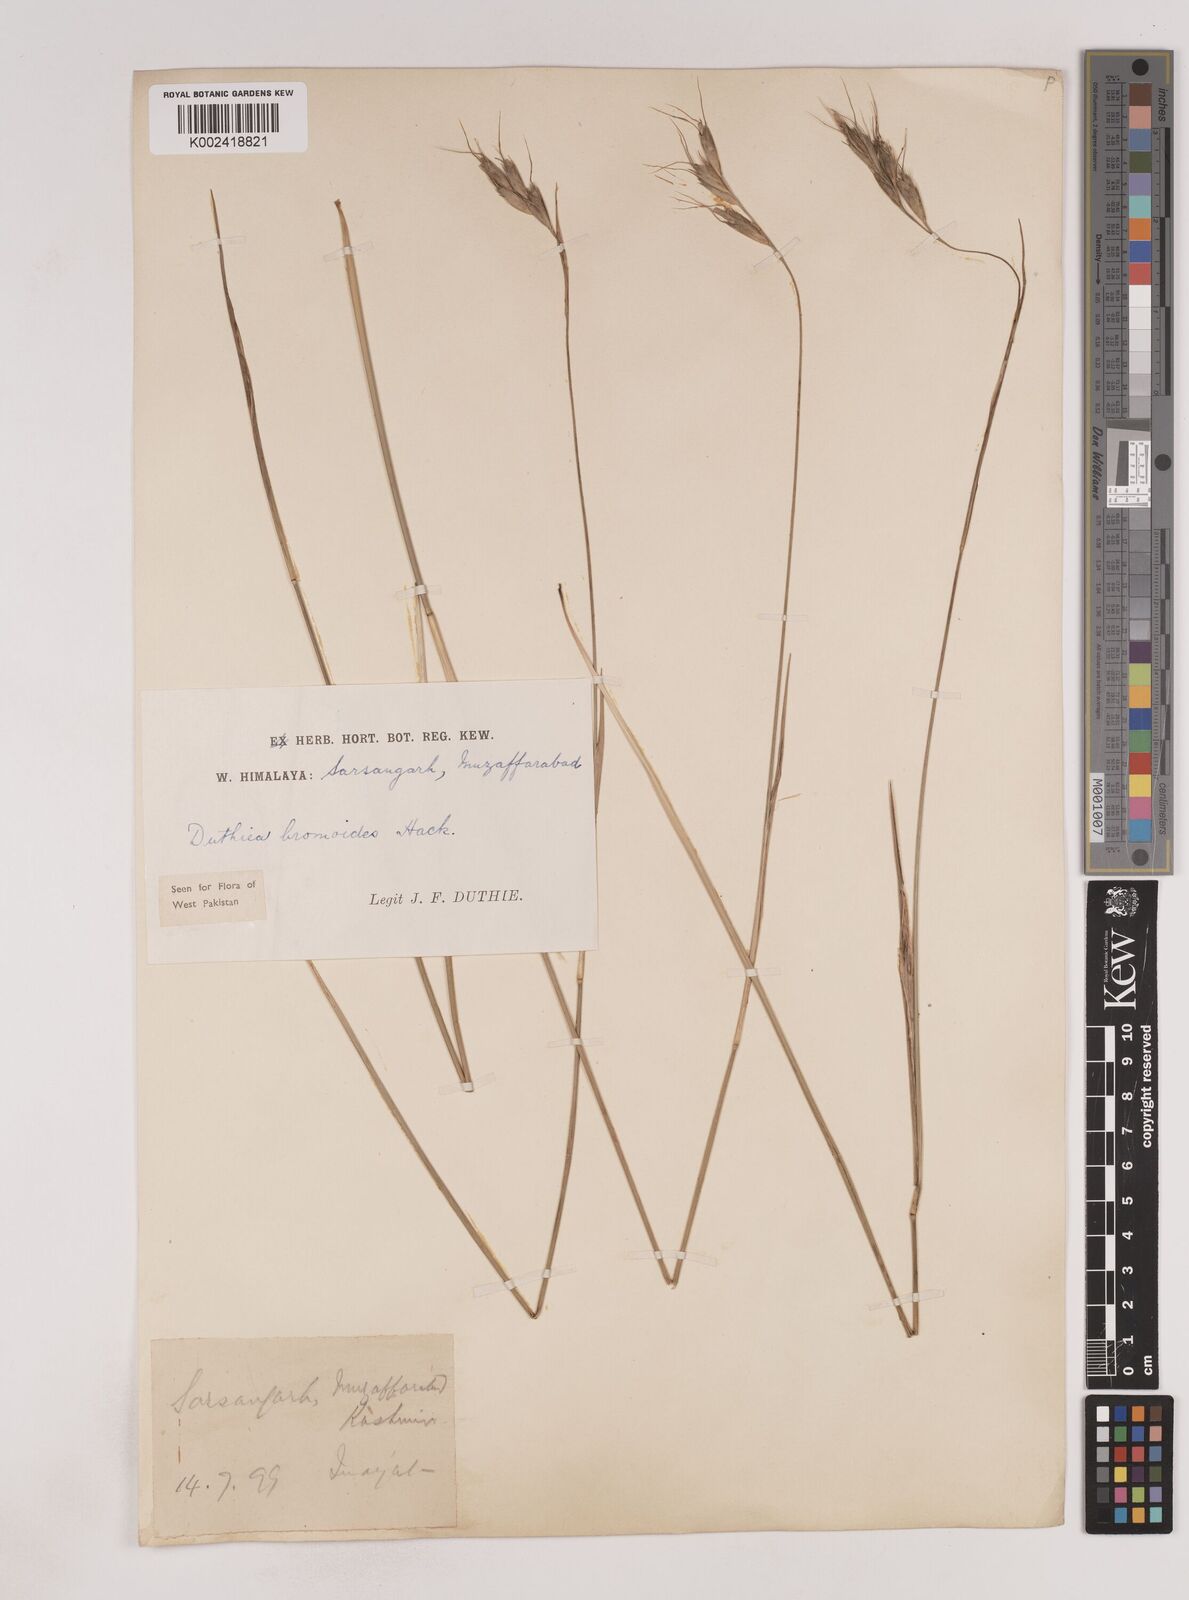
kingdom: Plantae
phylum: Tracheophyta
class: Liliopsida
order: Poales
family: Poaceae
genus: Duthiea
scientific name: Duthiea bromoides
